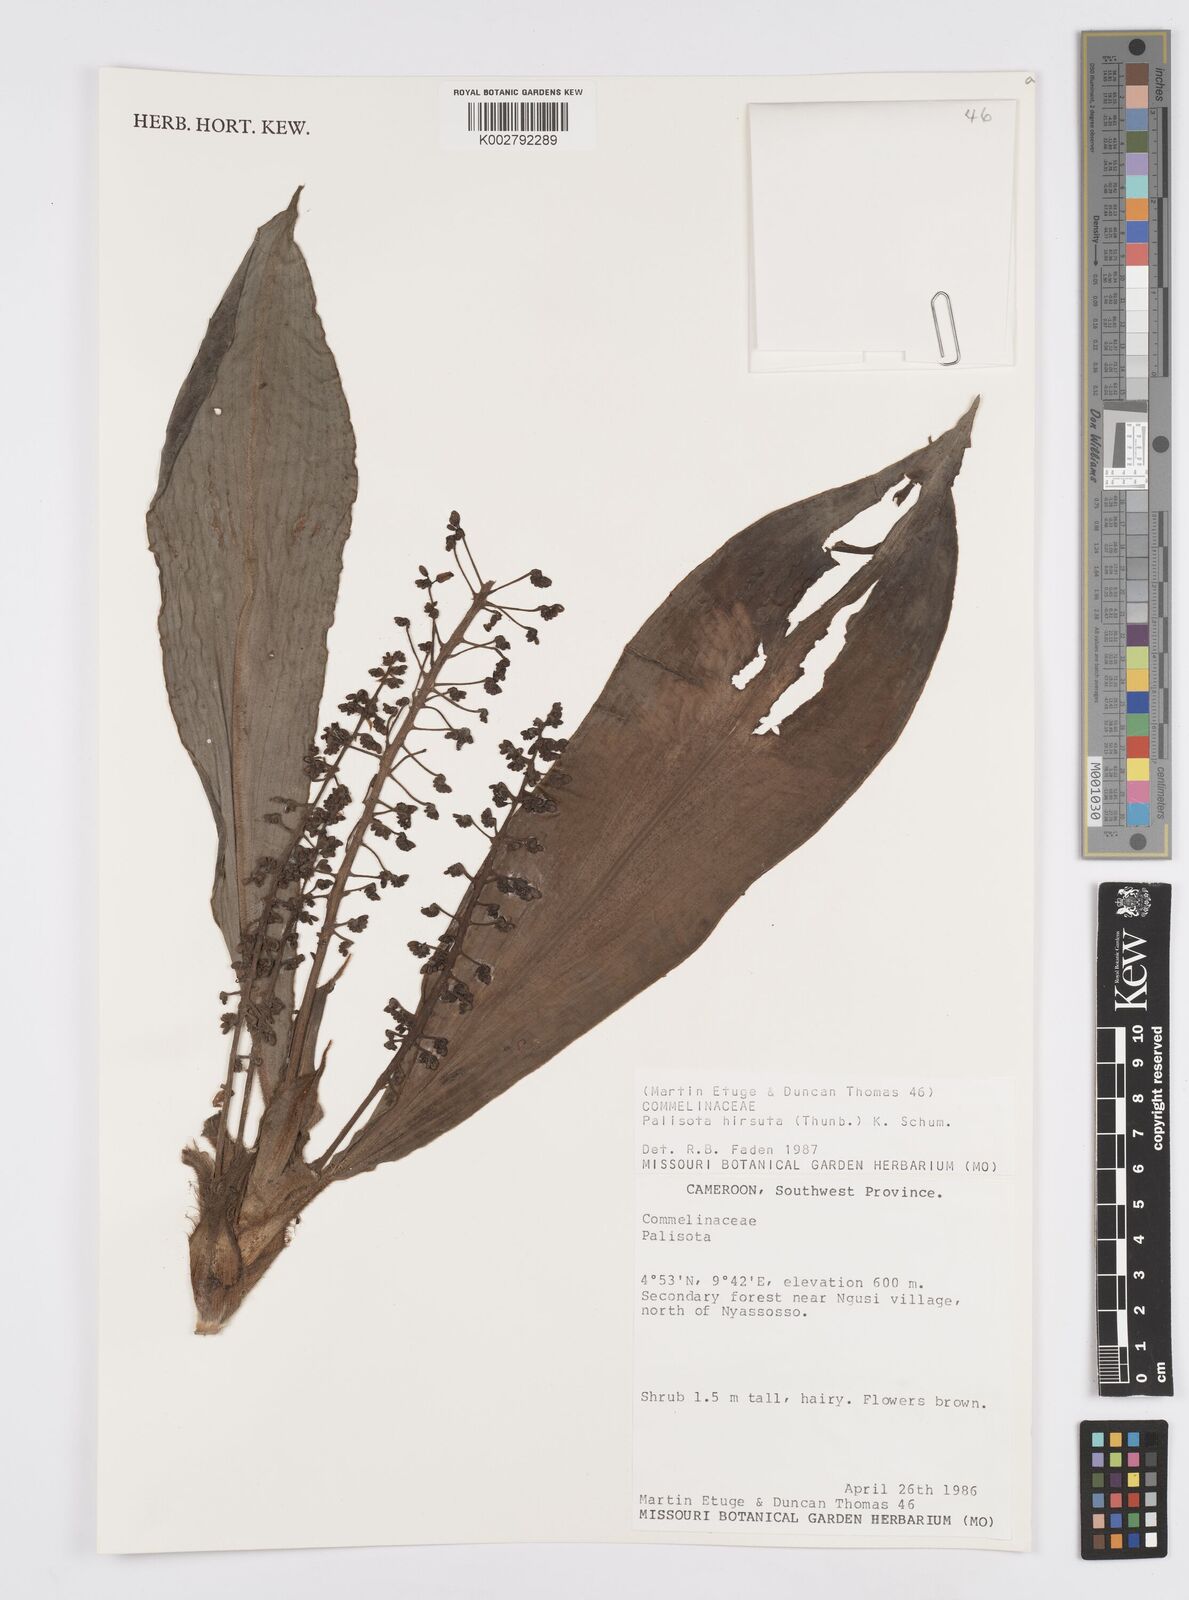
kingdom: Plantae
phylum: Tracheophyta
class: Liliopsida
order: Commelinales
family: Commelinaceae
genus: Palisota
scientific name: Palisota hirsuta
